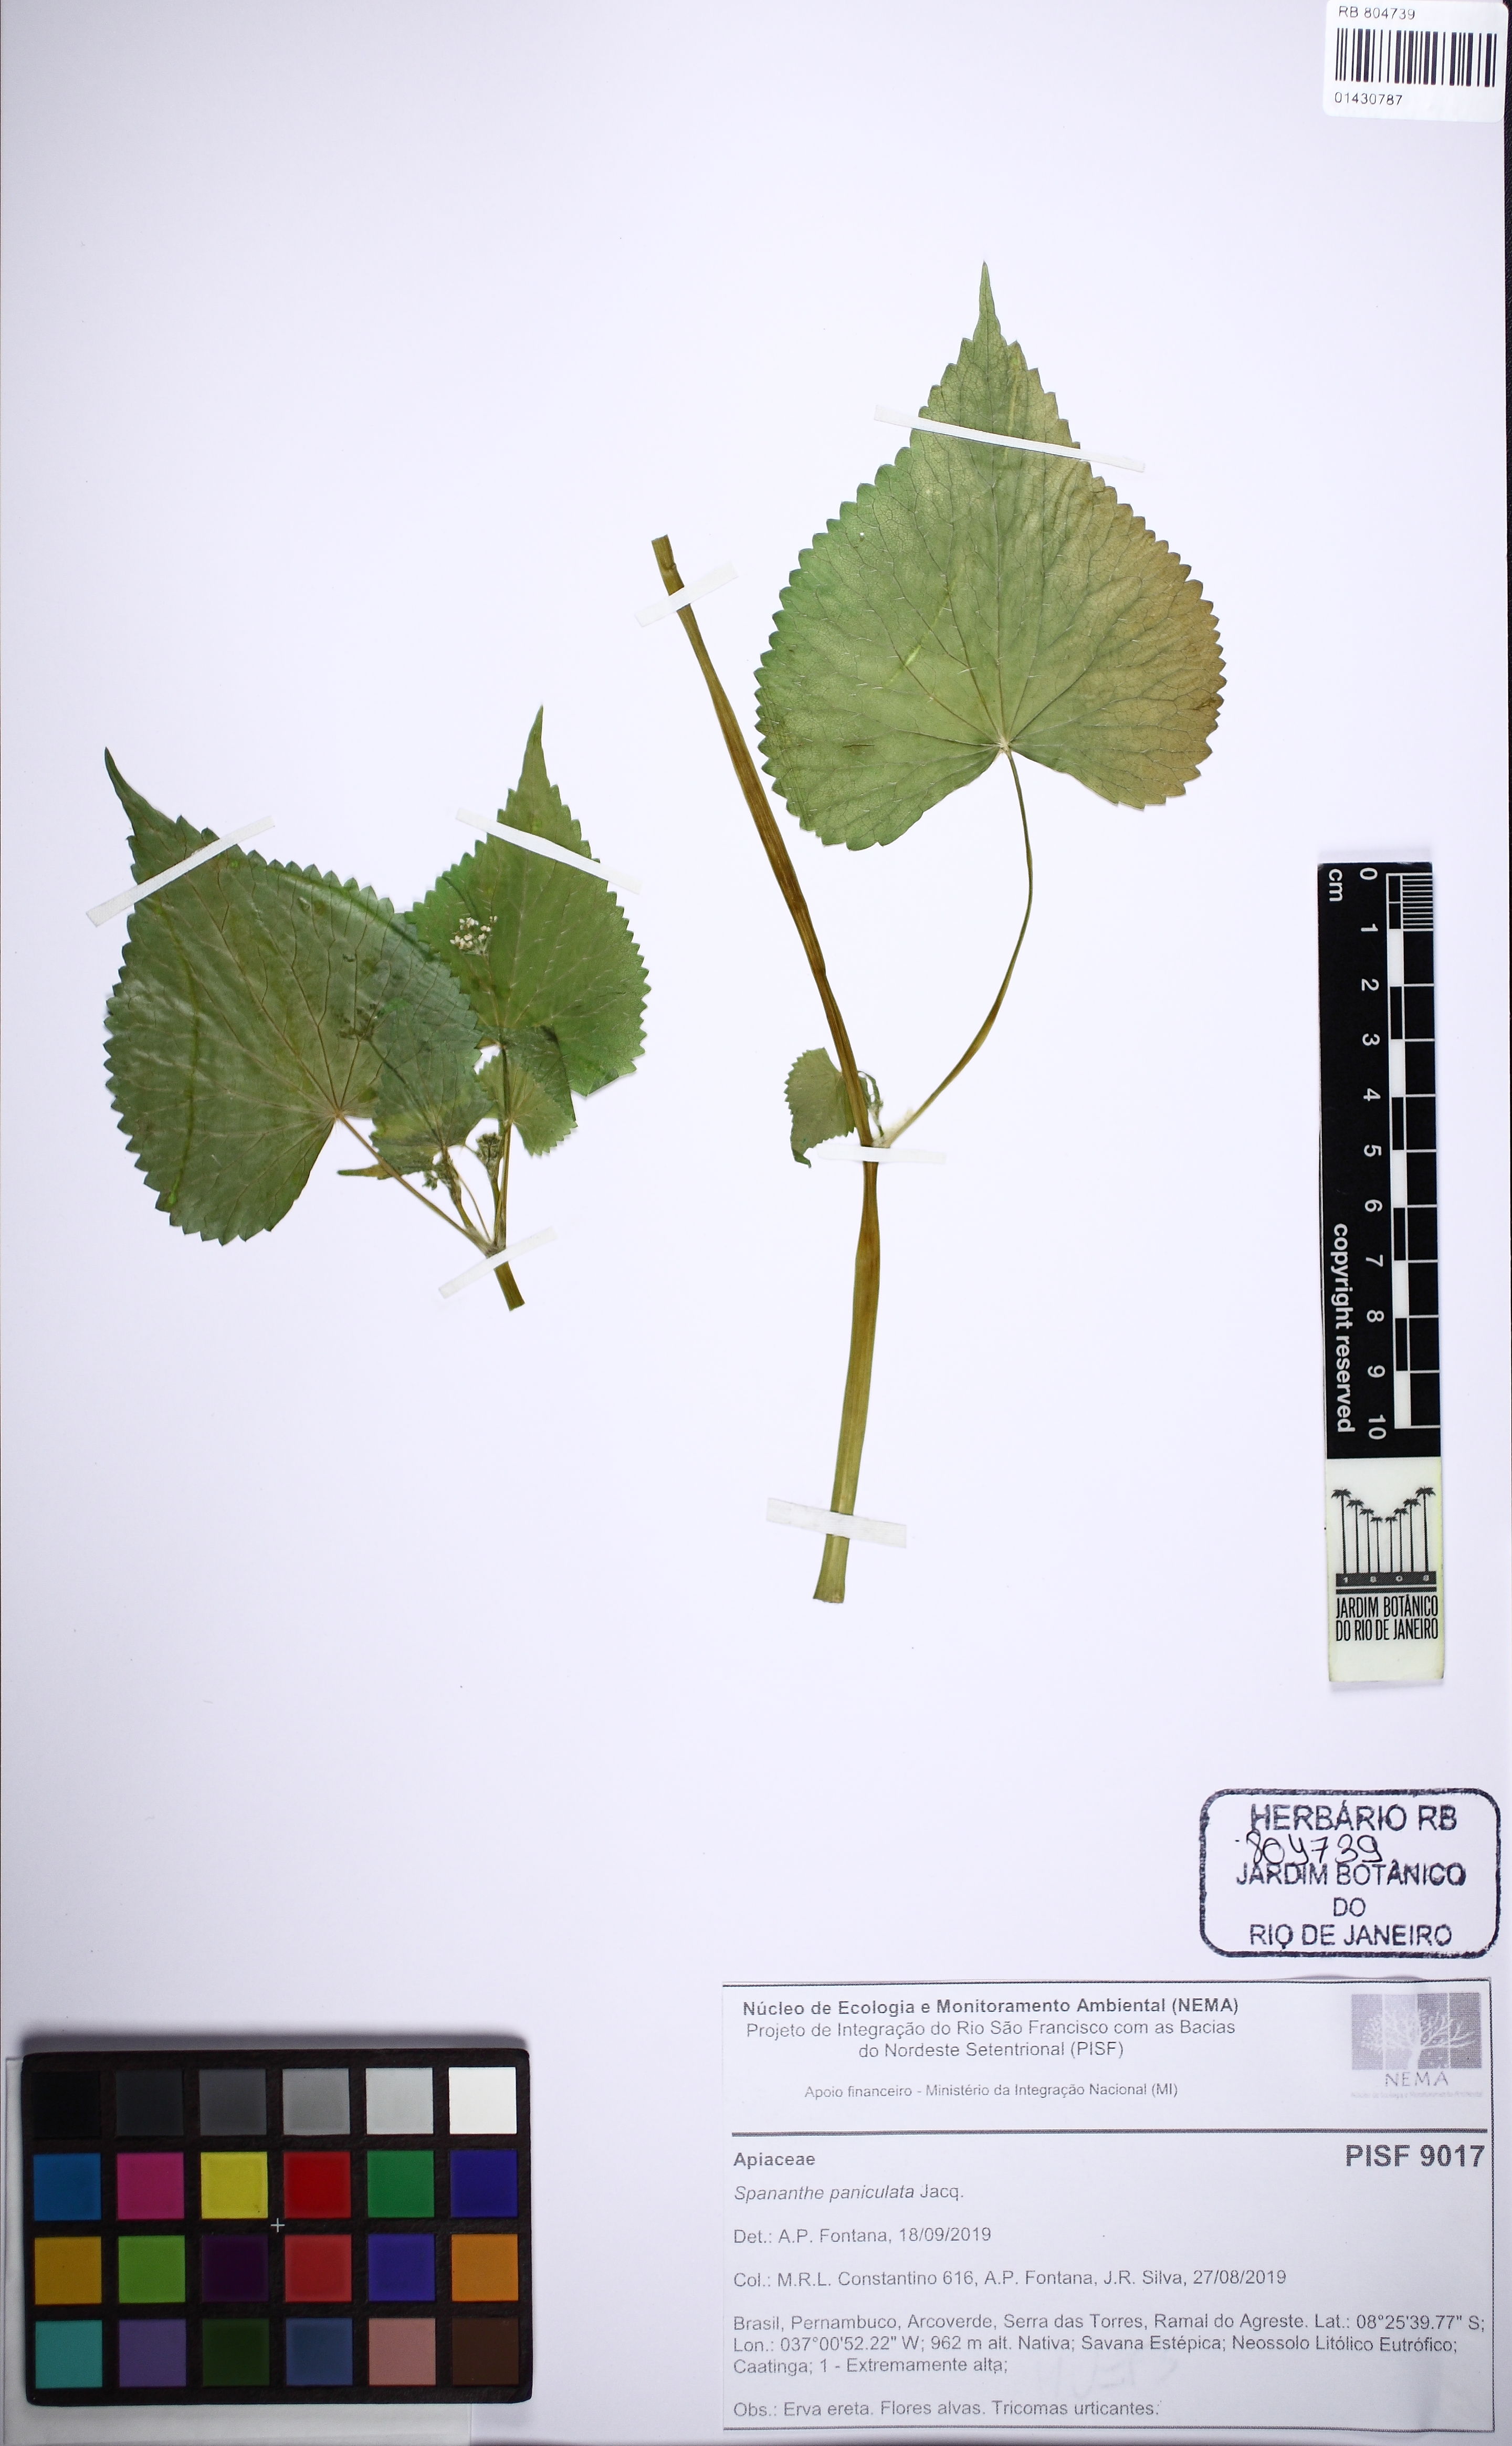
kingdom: Plantae
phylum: Tracheophyta
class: Magnoliopsida
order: Apiales
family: Apiaceae
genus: Spananthe
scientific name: Spananthe paniculata
